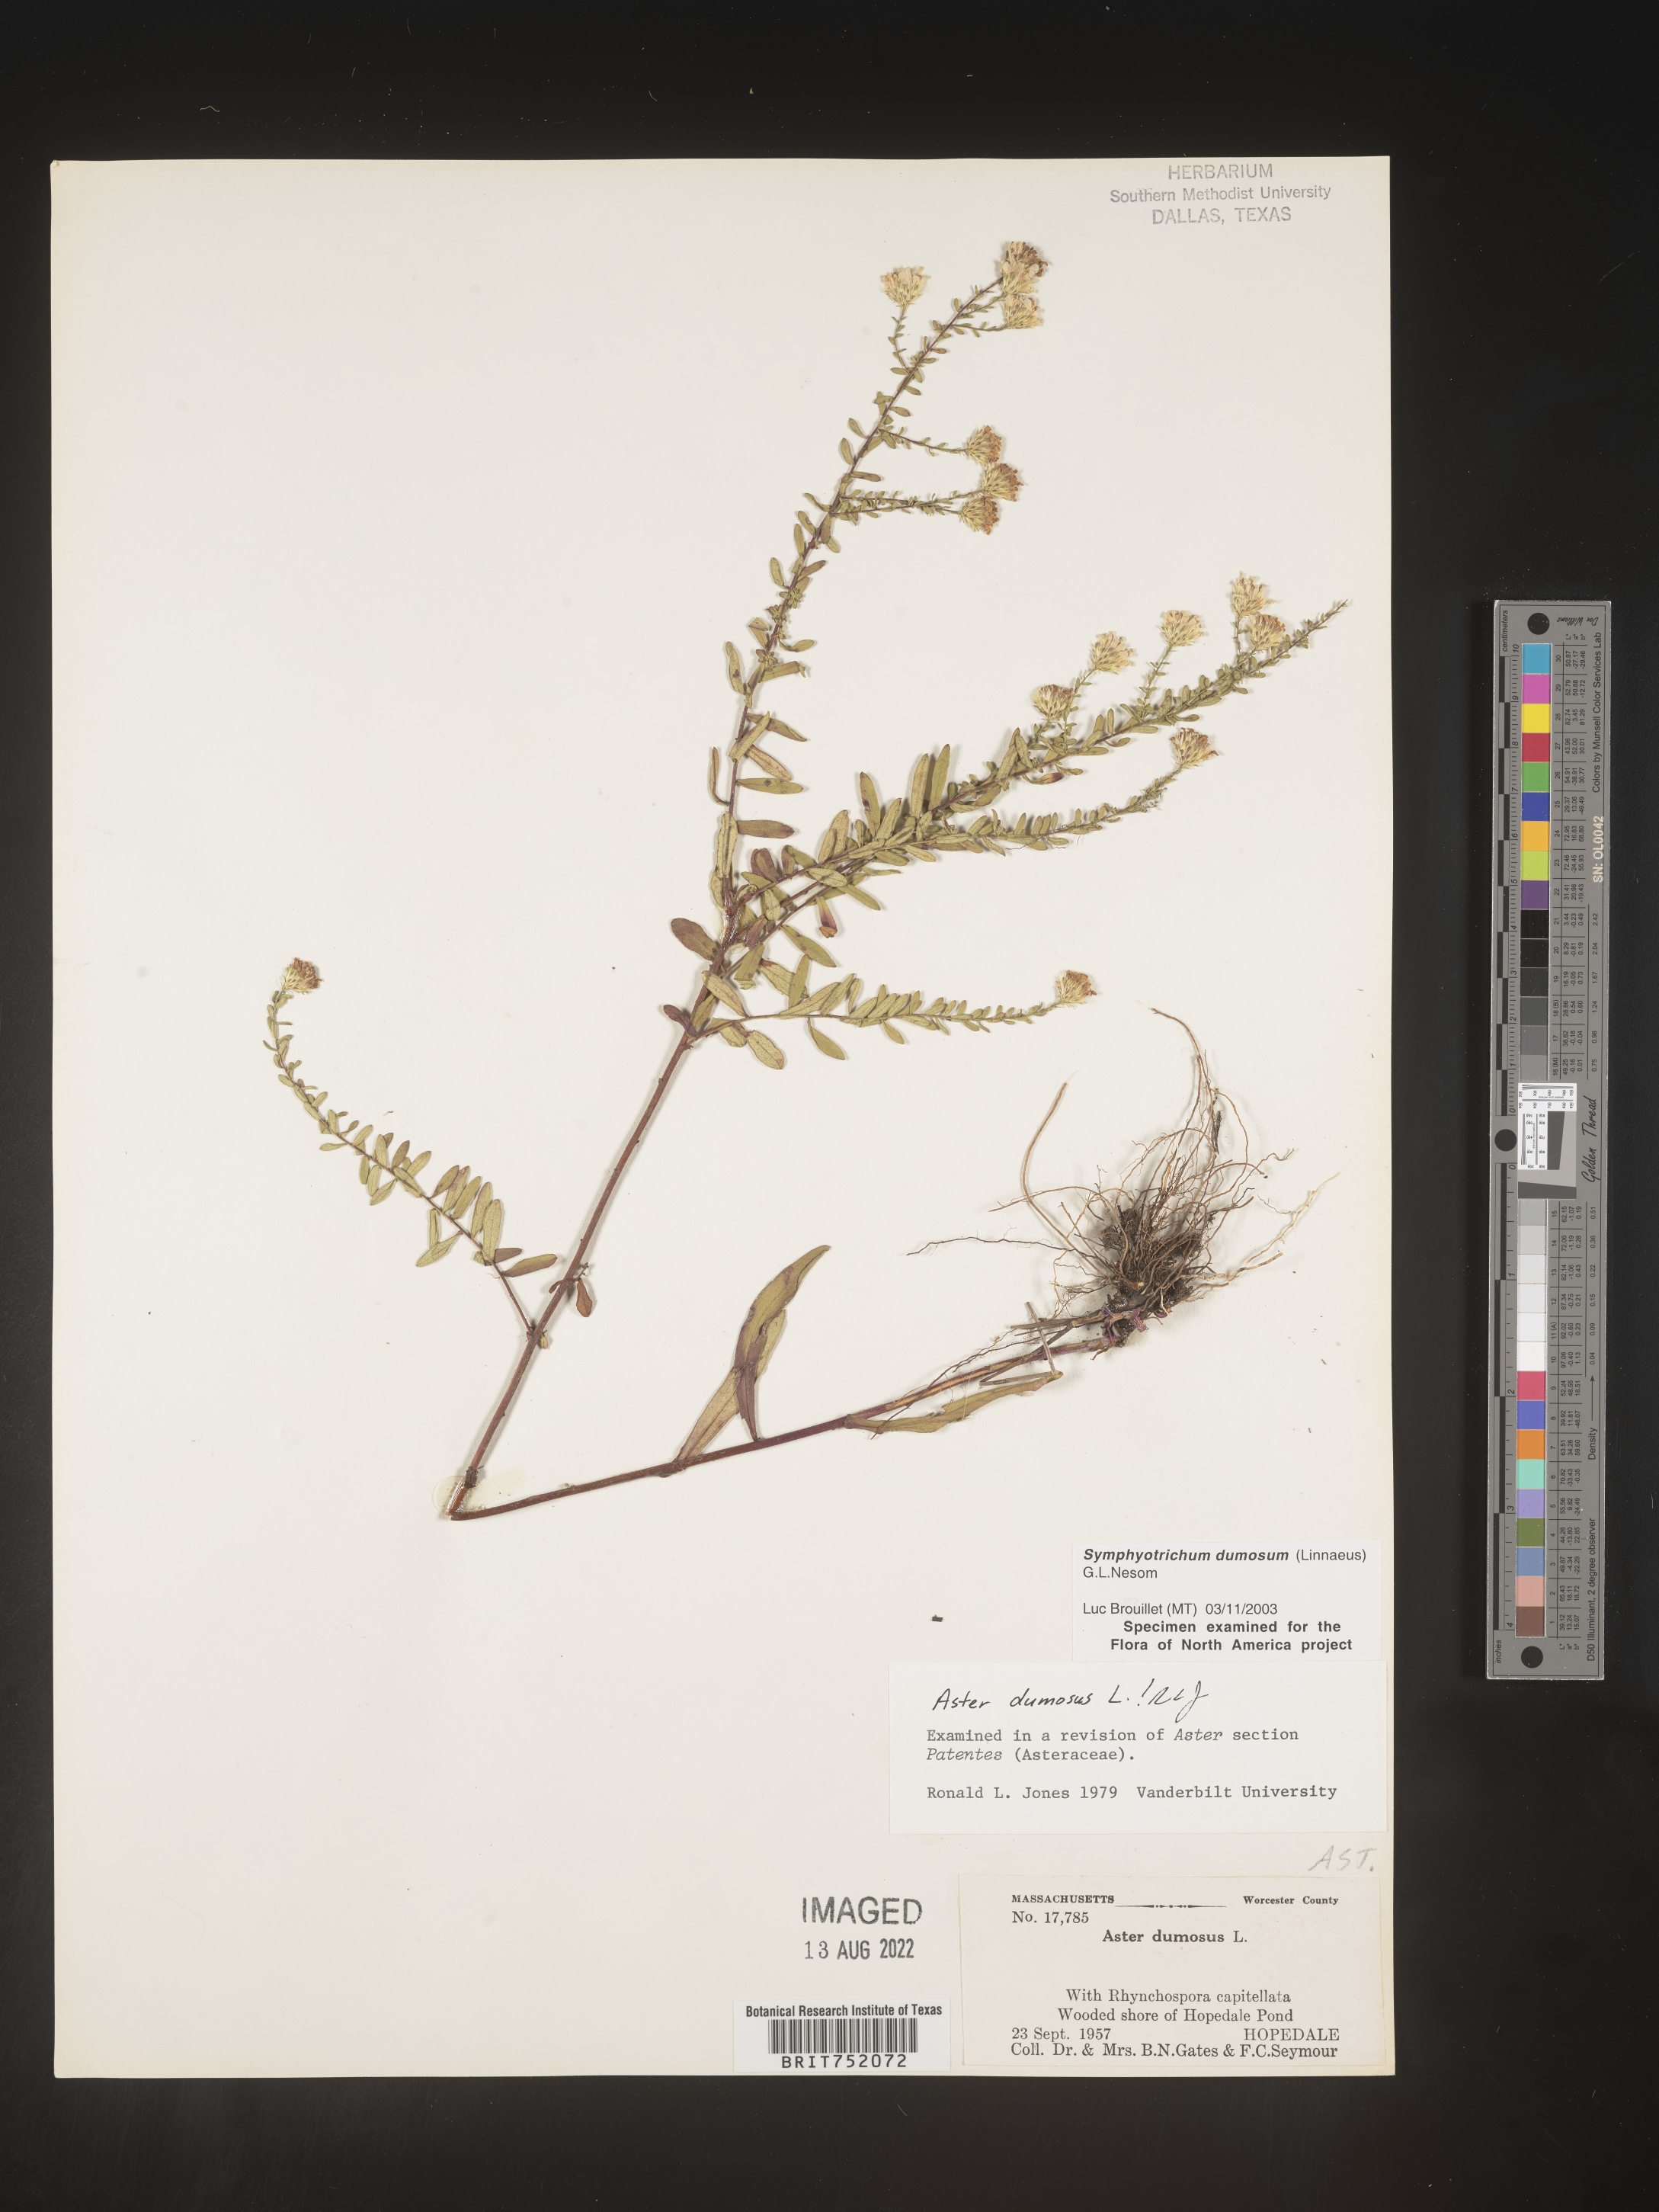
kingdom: Plantae
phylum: Tracheophyta
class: Magnoliopsida
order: Asterales
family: Asteraceae
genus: Symphyotrichum
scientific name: Symphyotrichum dumosum
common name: Bushy aster
